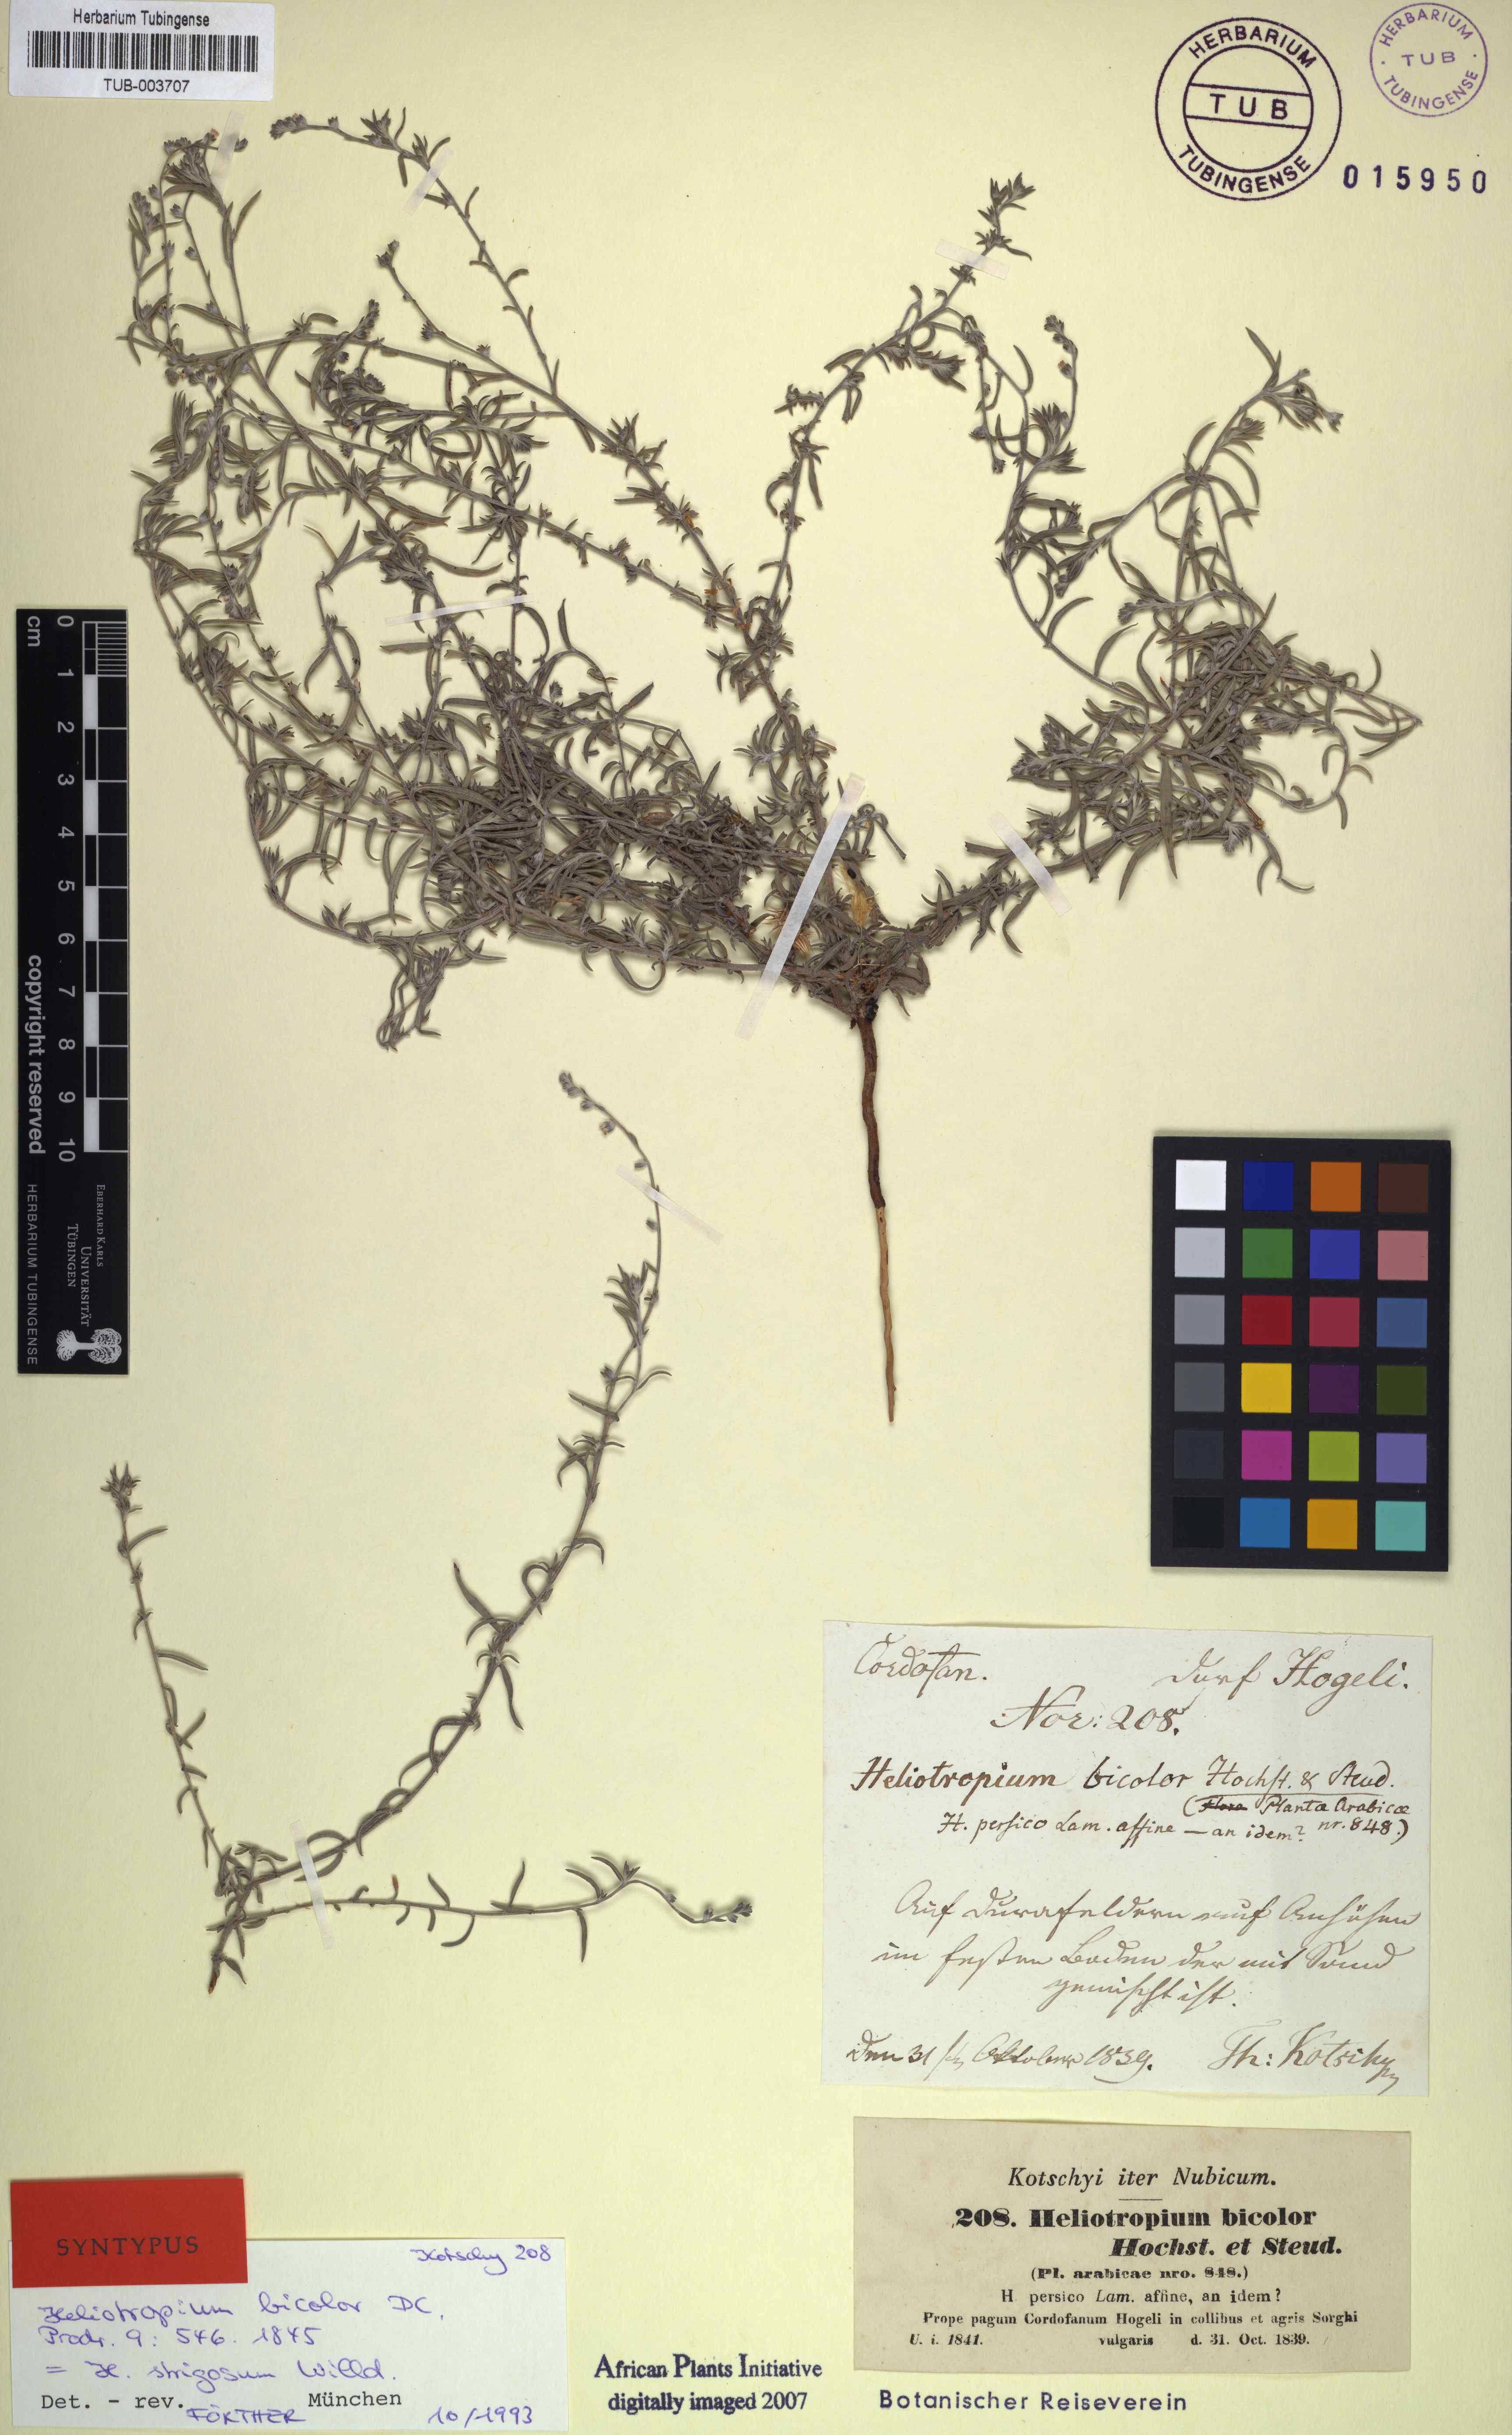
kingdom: Plantae
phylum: Tracheophyta
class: Magnoliopsida
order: Boraginales
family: Heliotropiaceae
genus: Euploca
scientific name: Euploca strigosa
